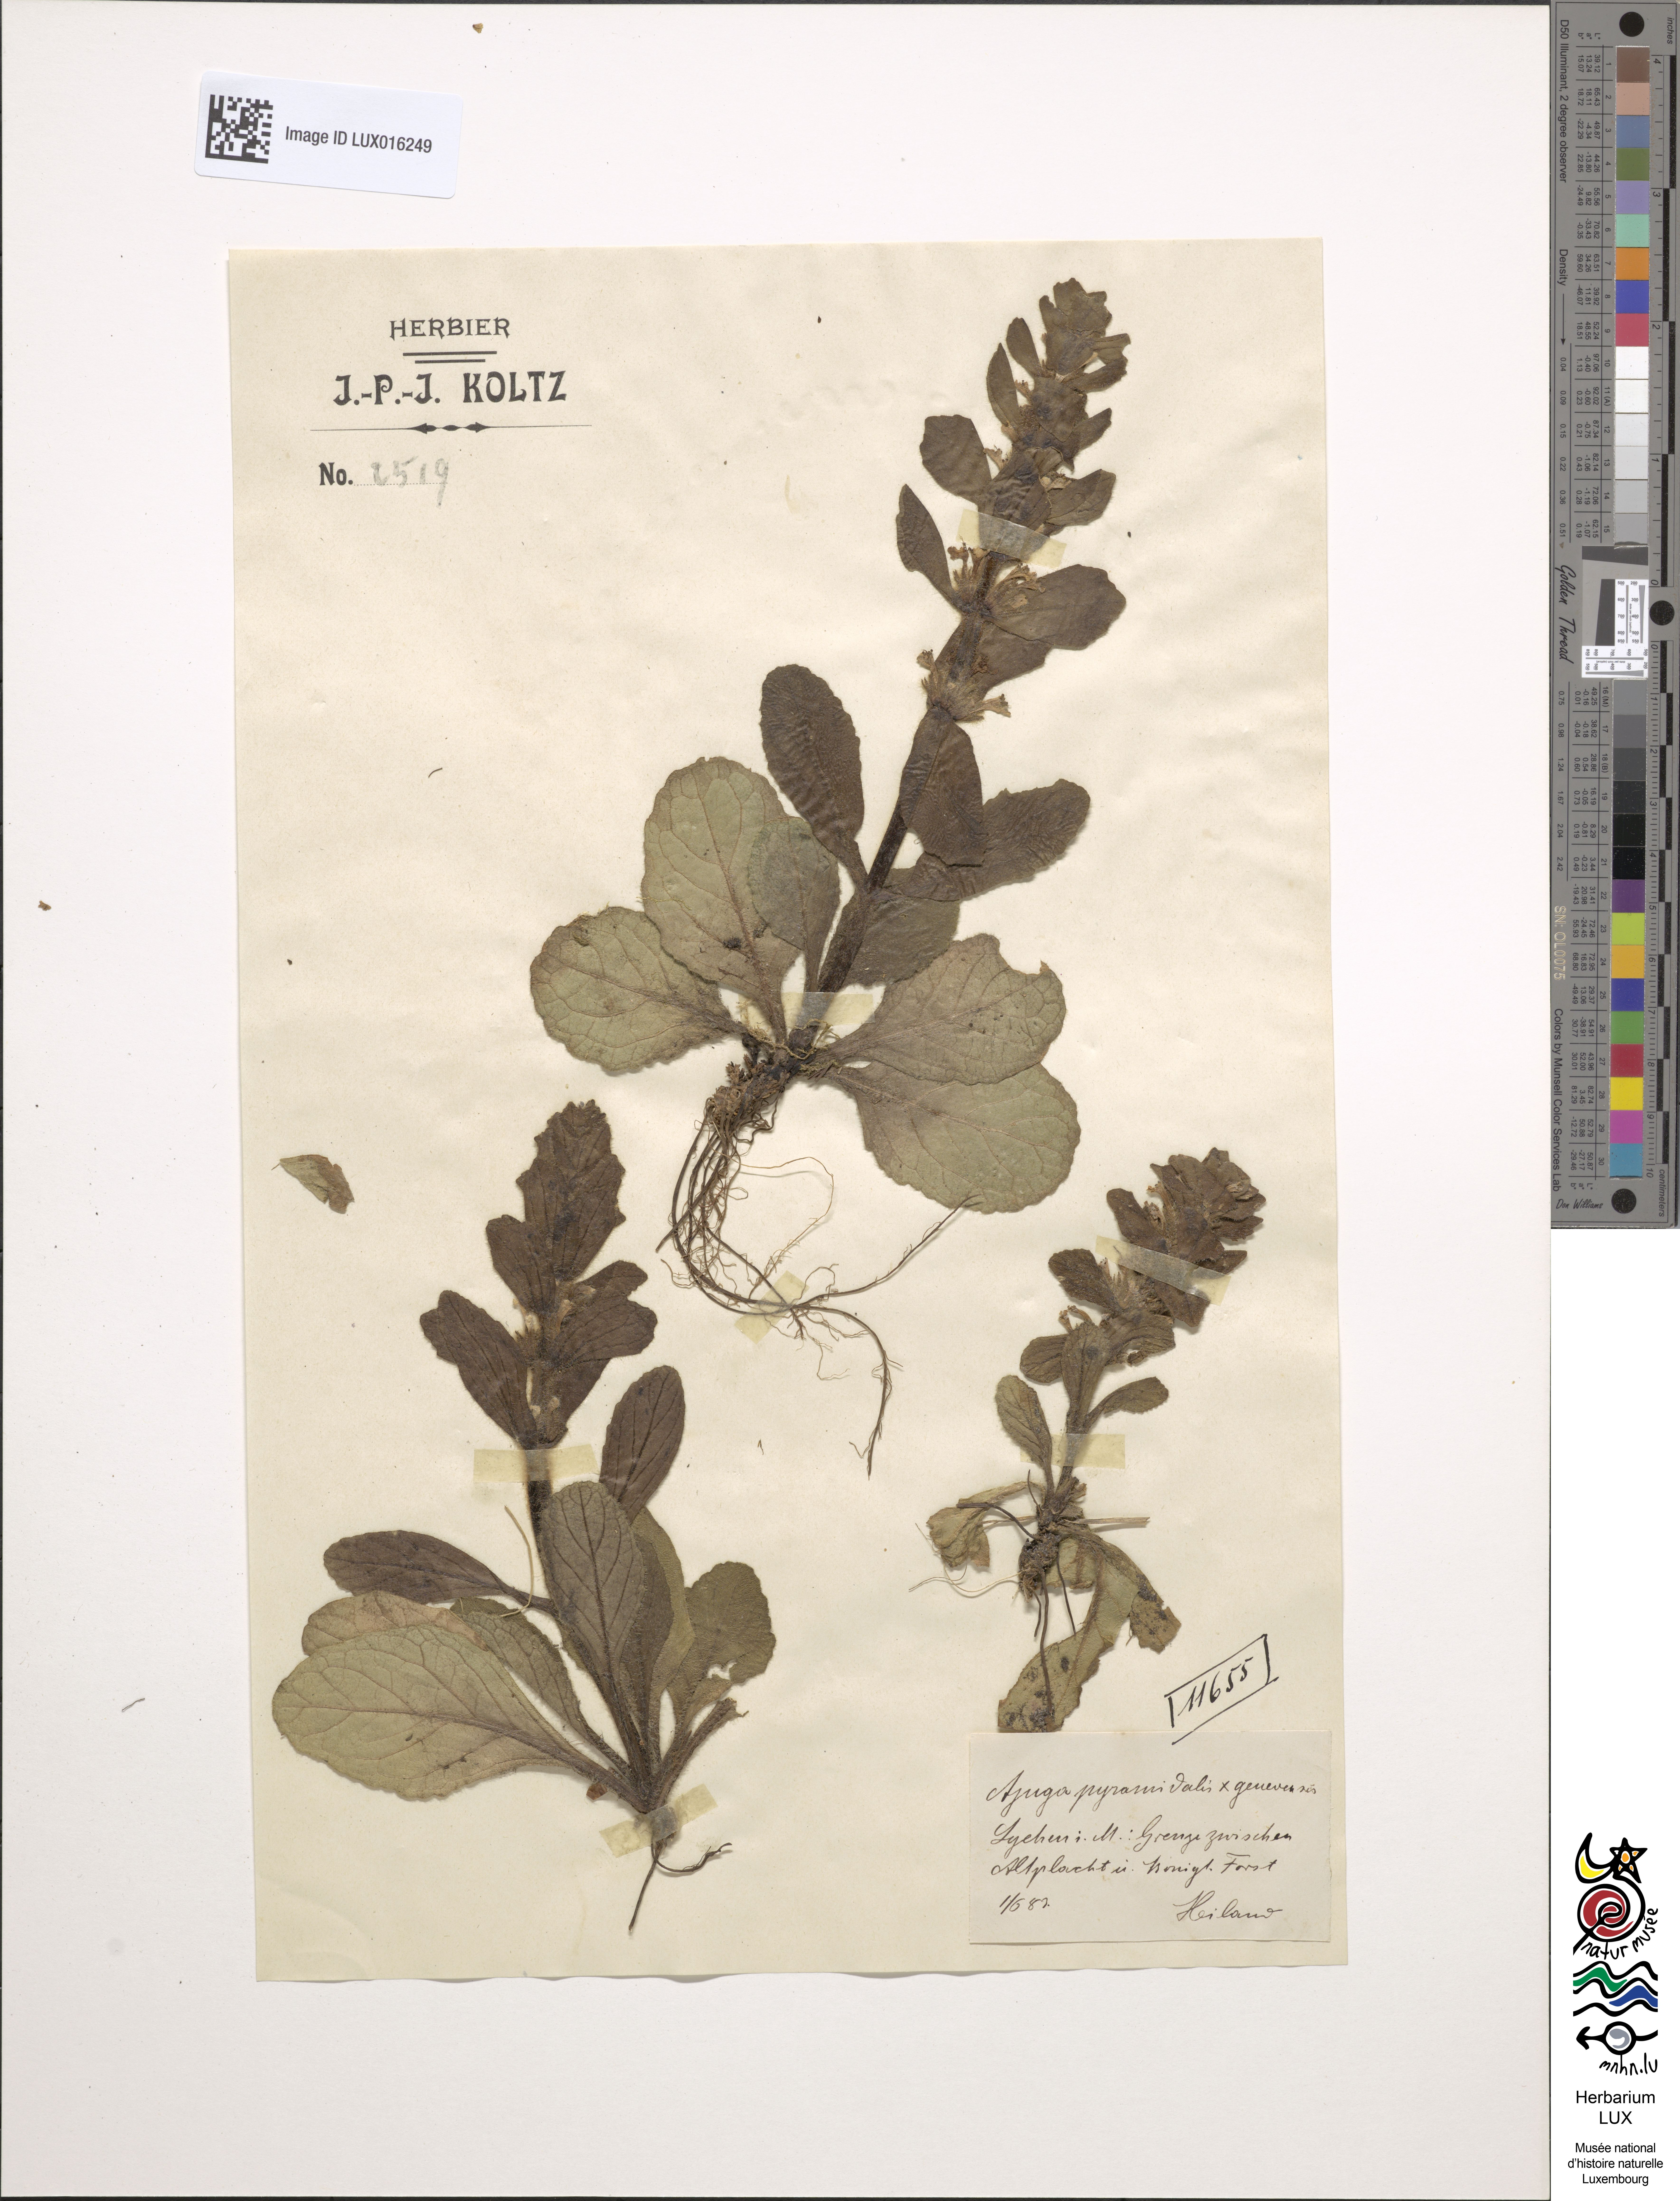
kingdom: Plantae
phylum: Tracheophyta
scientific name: Tracheophyta
